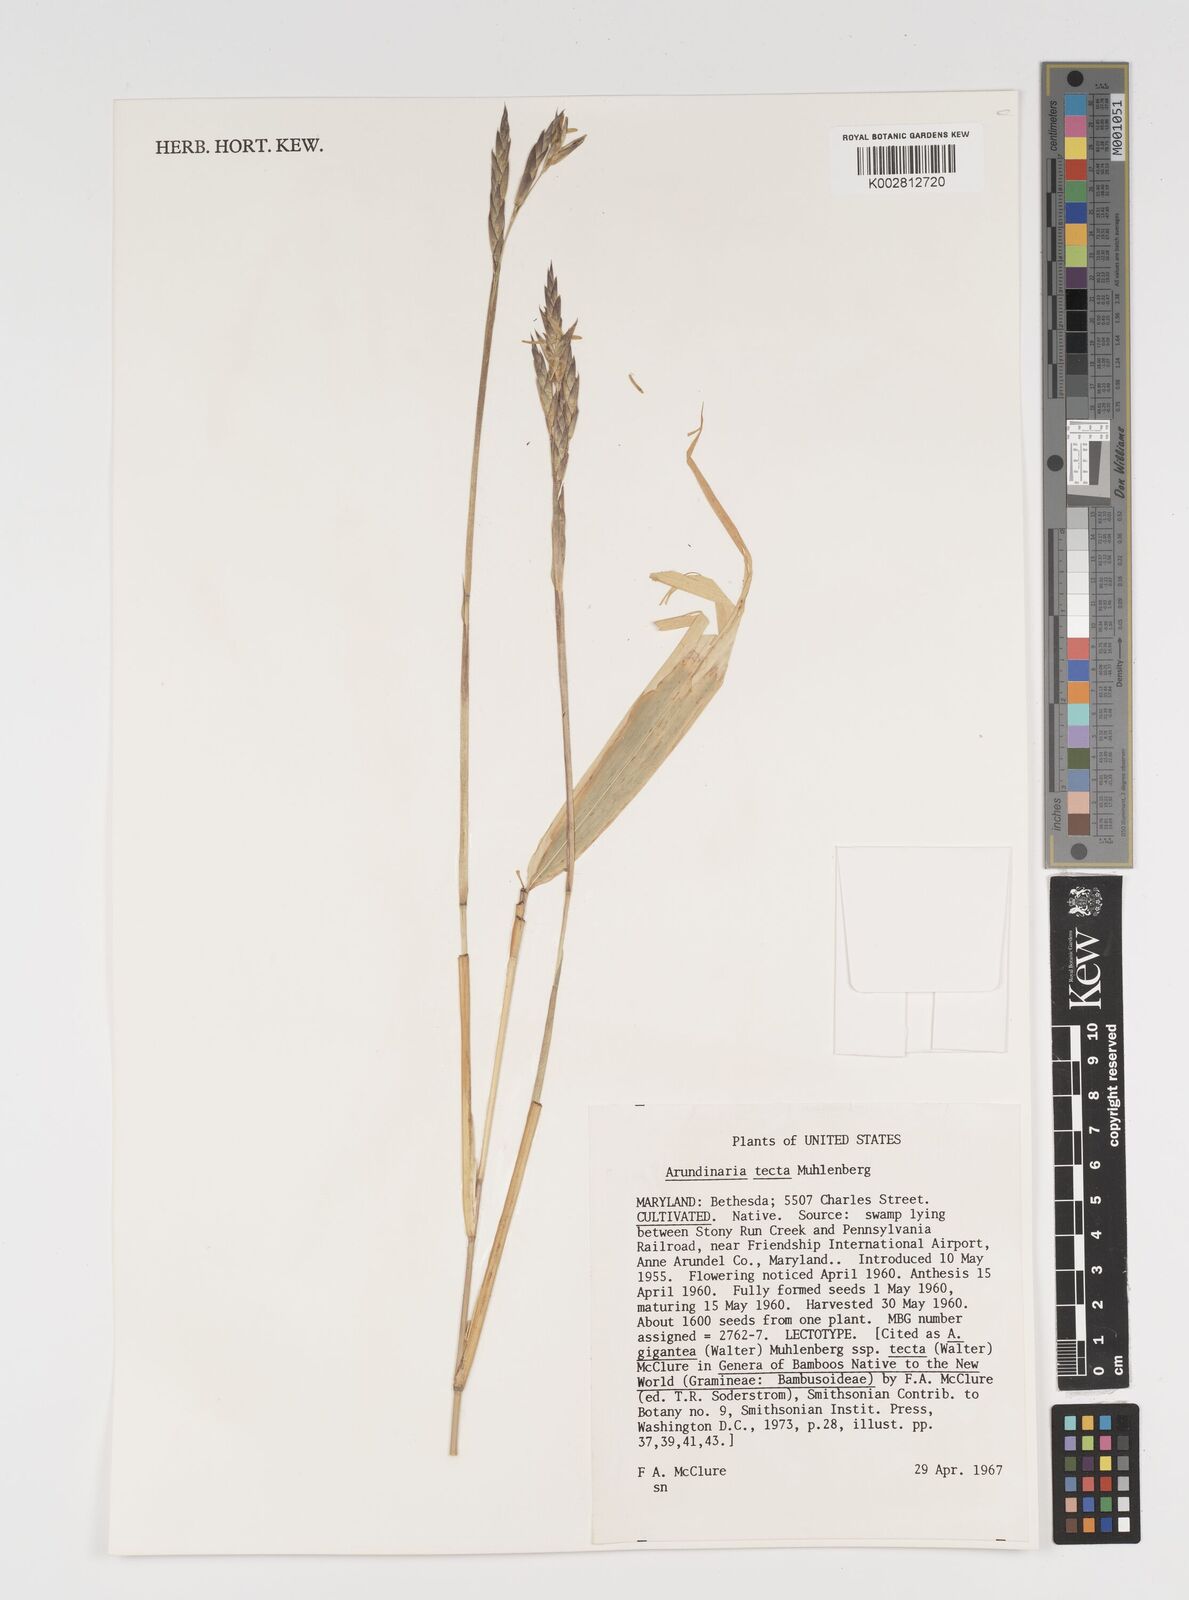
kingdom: Plantae
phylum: Tracheophyta
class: Liliopsida
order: Poales
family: Poaceae
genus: Arundinaria
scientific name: Arundinaria tecta
